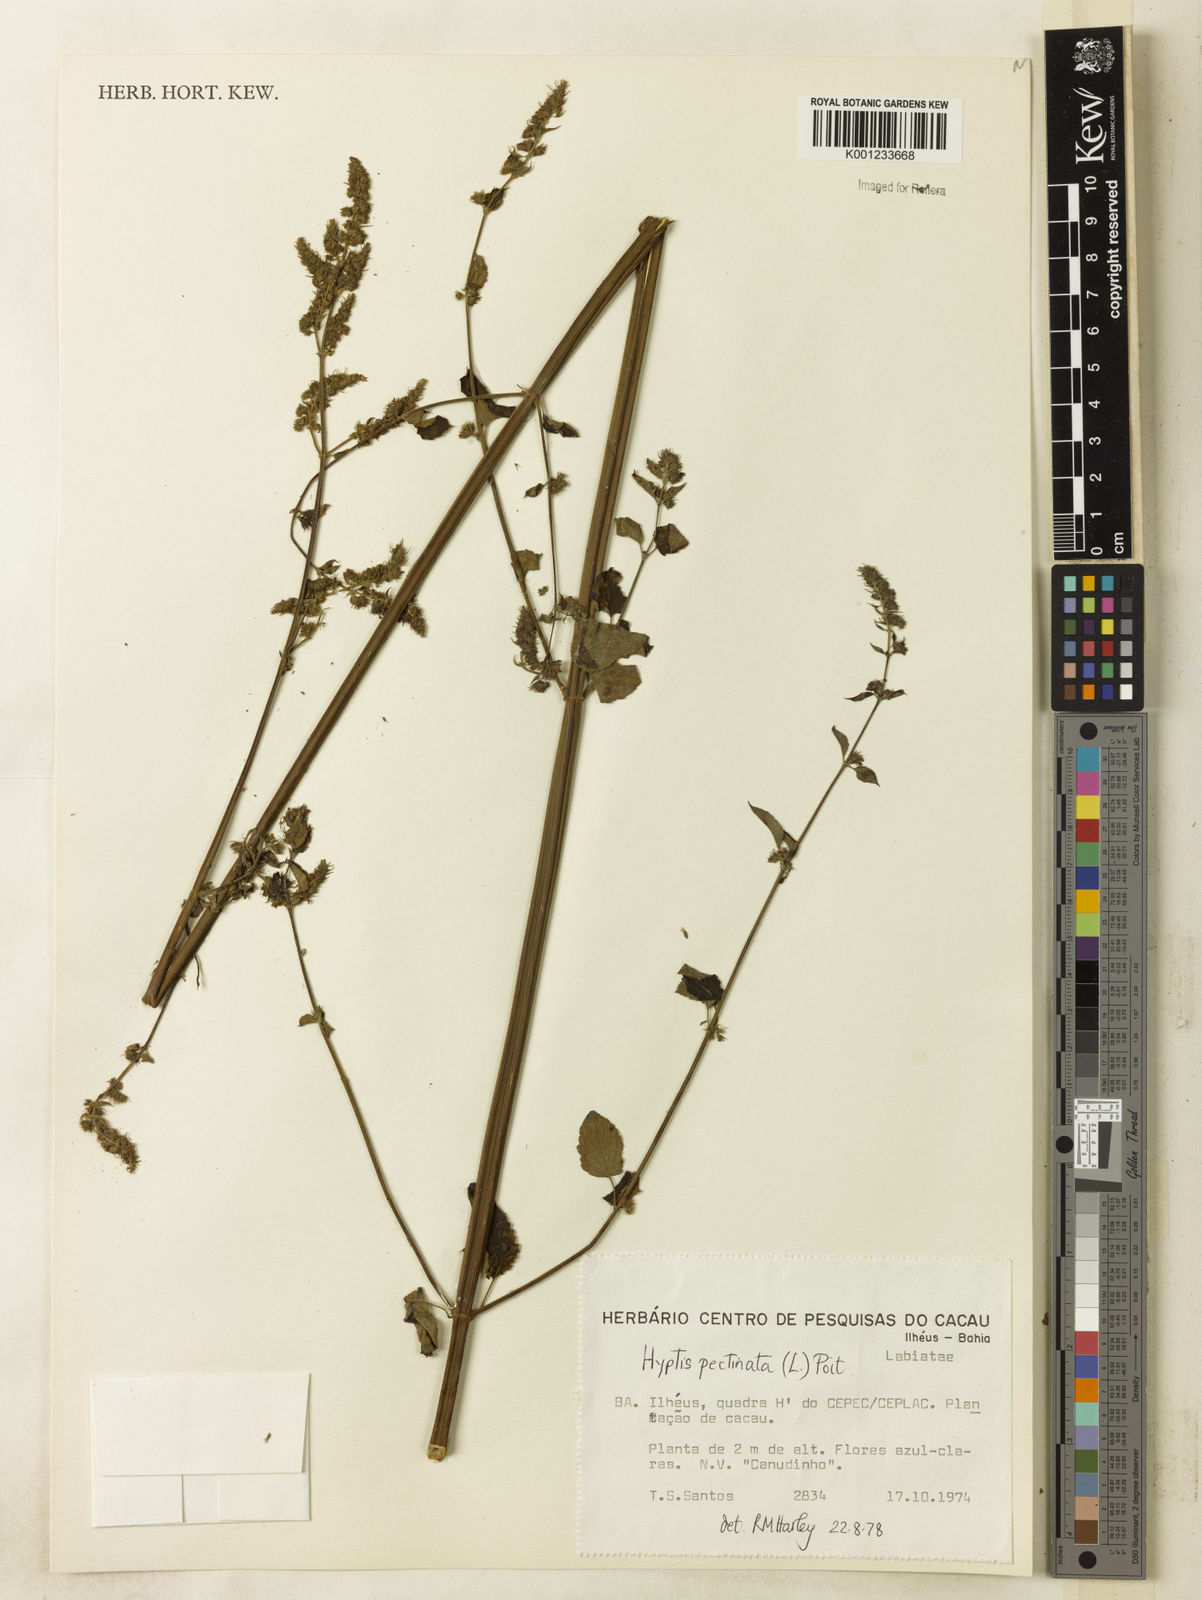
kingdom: Plantae
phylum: Tracheophyta
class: Magnoliopsida
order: Lamiales
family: Lamiaceae
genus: Mesosphaerum
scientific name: Mesosphaerum pectinatum
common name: Comb hyptis
